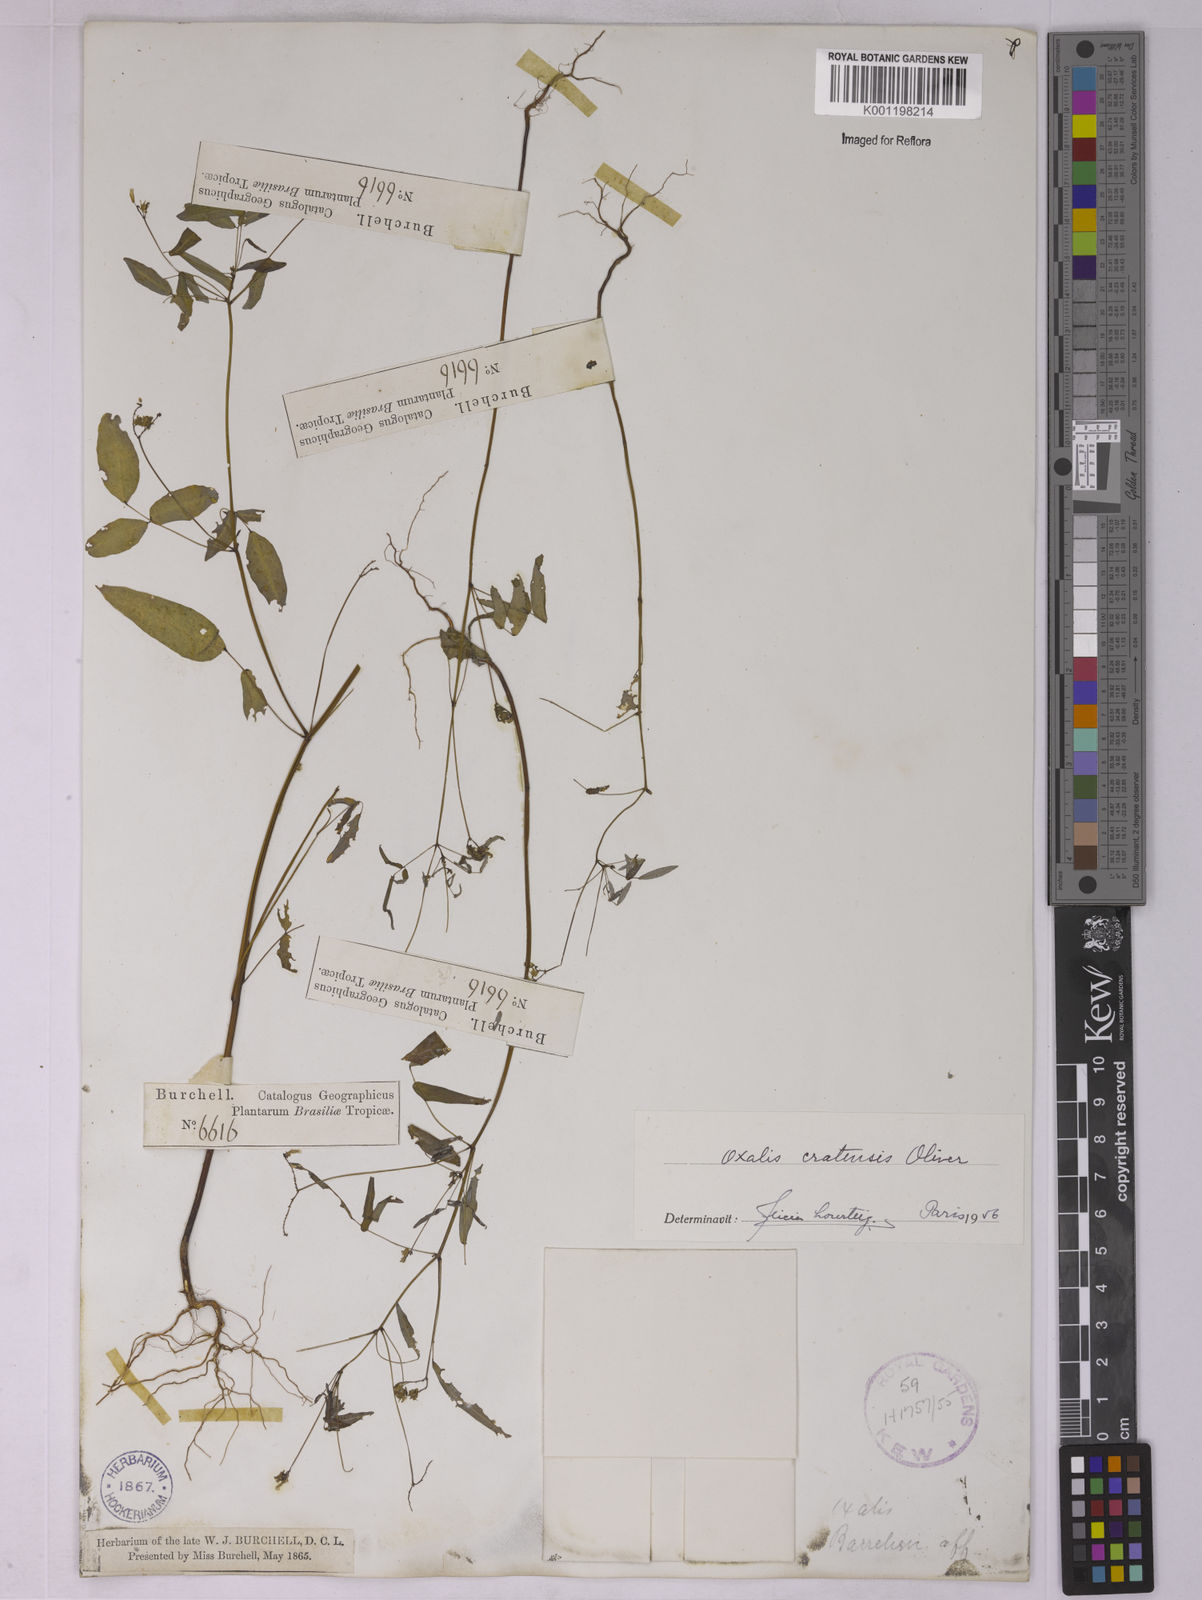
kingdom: Plantae
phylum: Tracheophyta
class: Magnoliopsida
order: Oxalidales
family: Oxalidaceae
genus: Oxalis
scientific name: Oxalis cratensis
